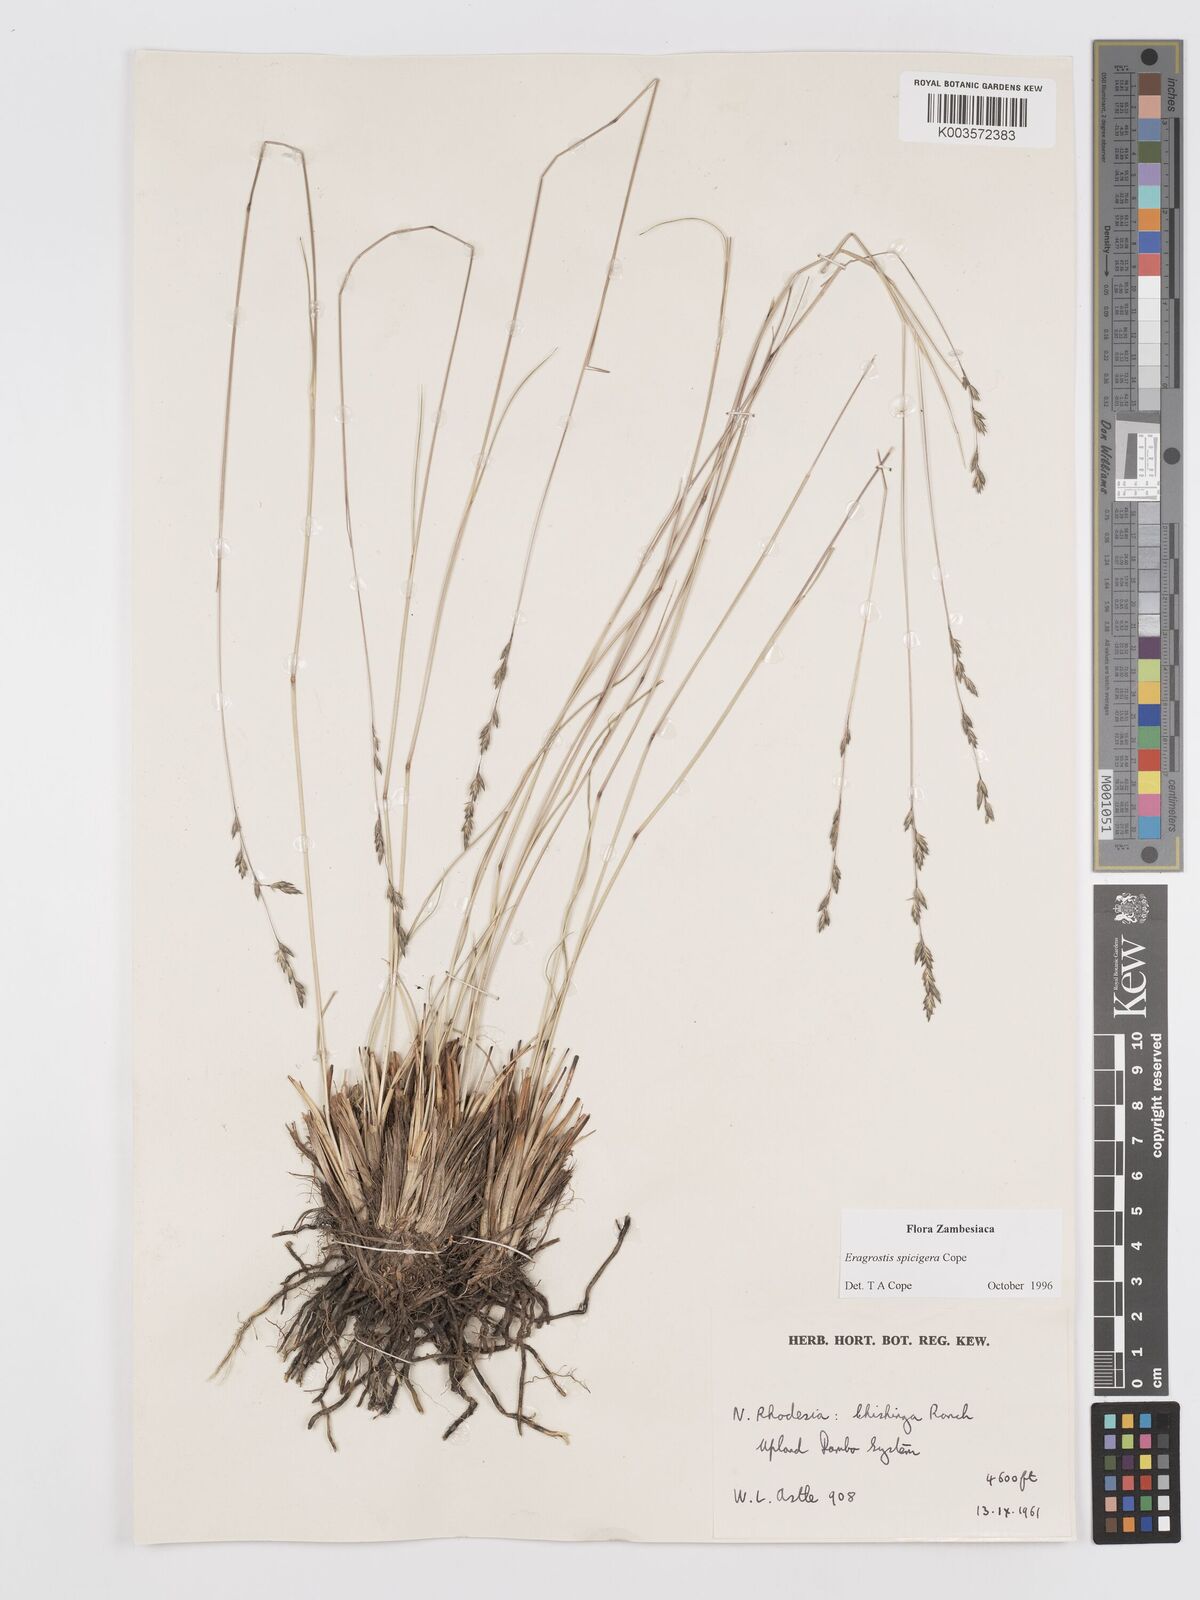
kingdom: Plantae
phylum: Tracheophyta
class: Liliopsida
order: Poales
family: Poaceae
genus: Eragrostis
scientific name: Eragrostis spicigera
